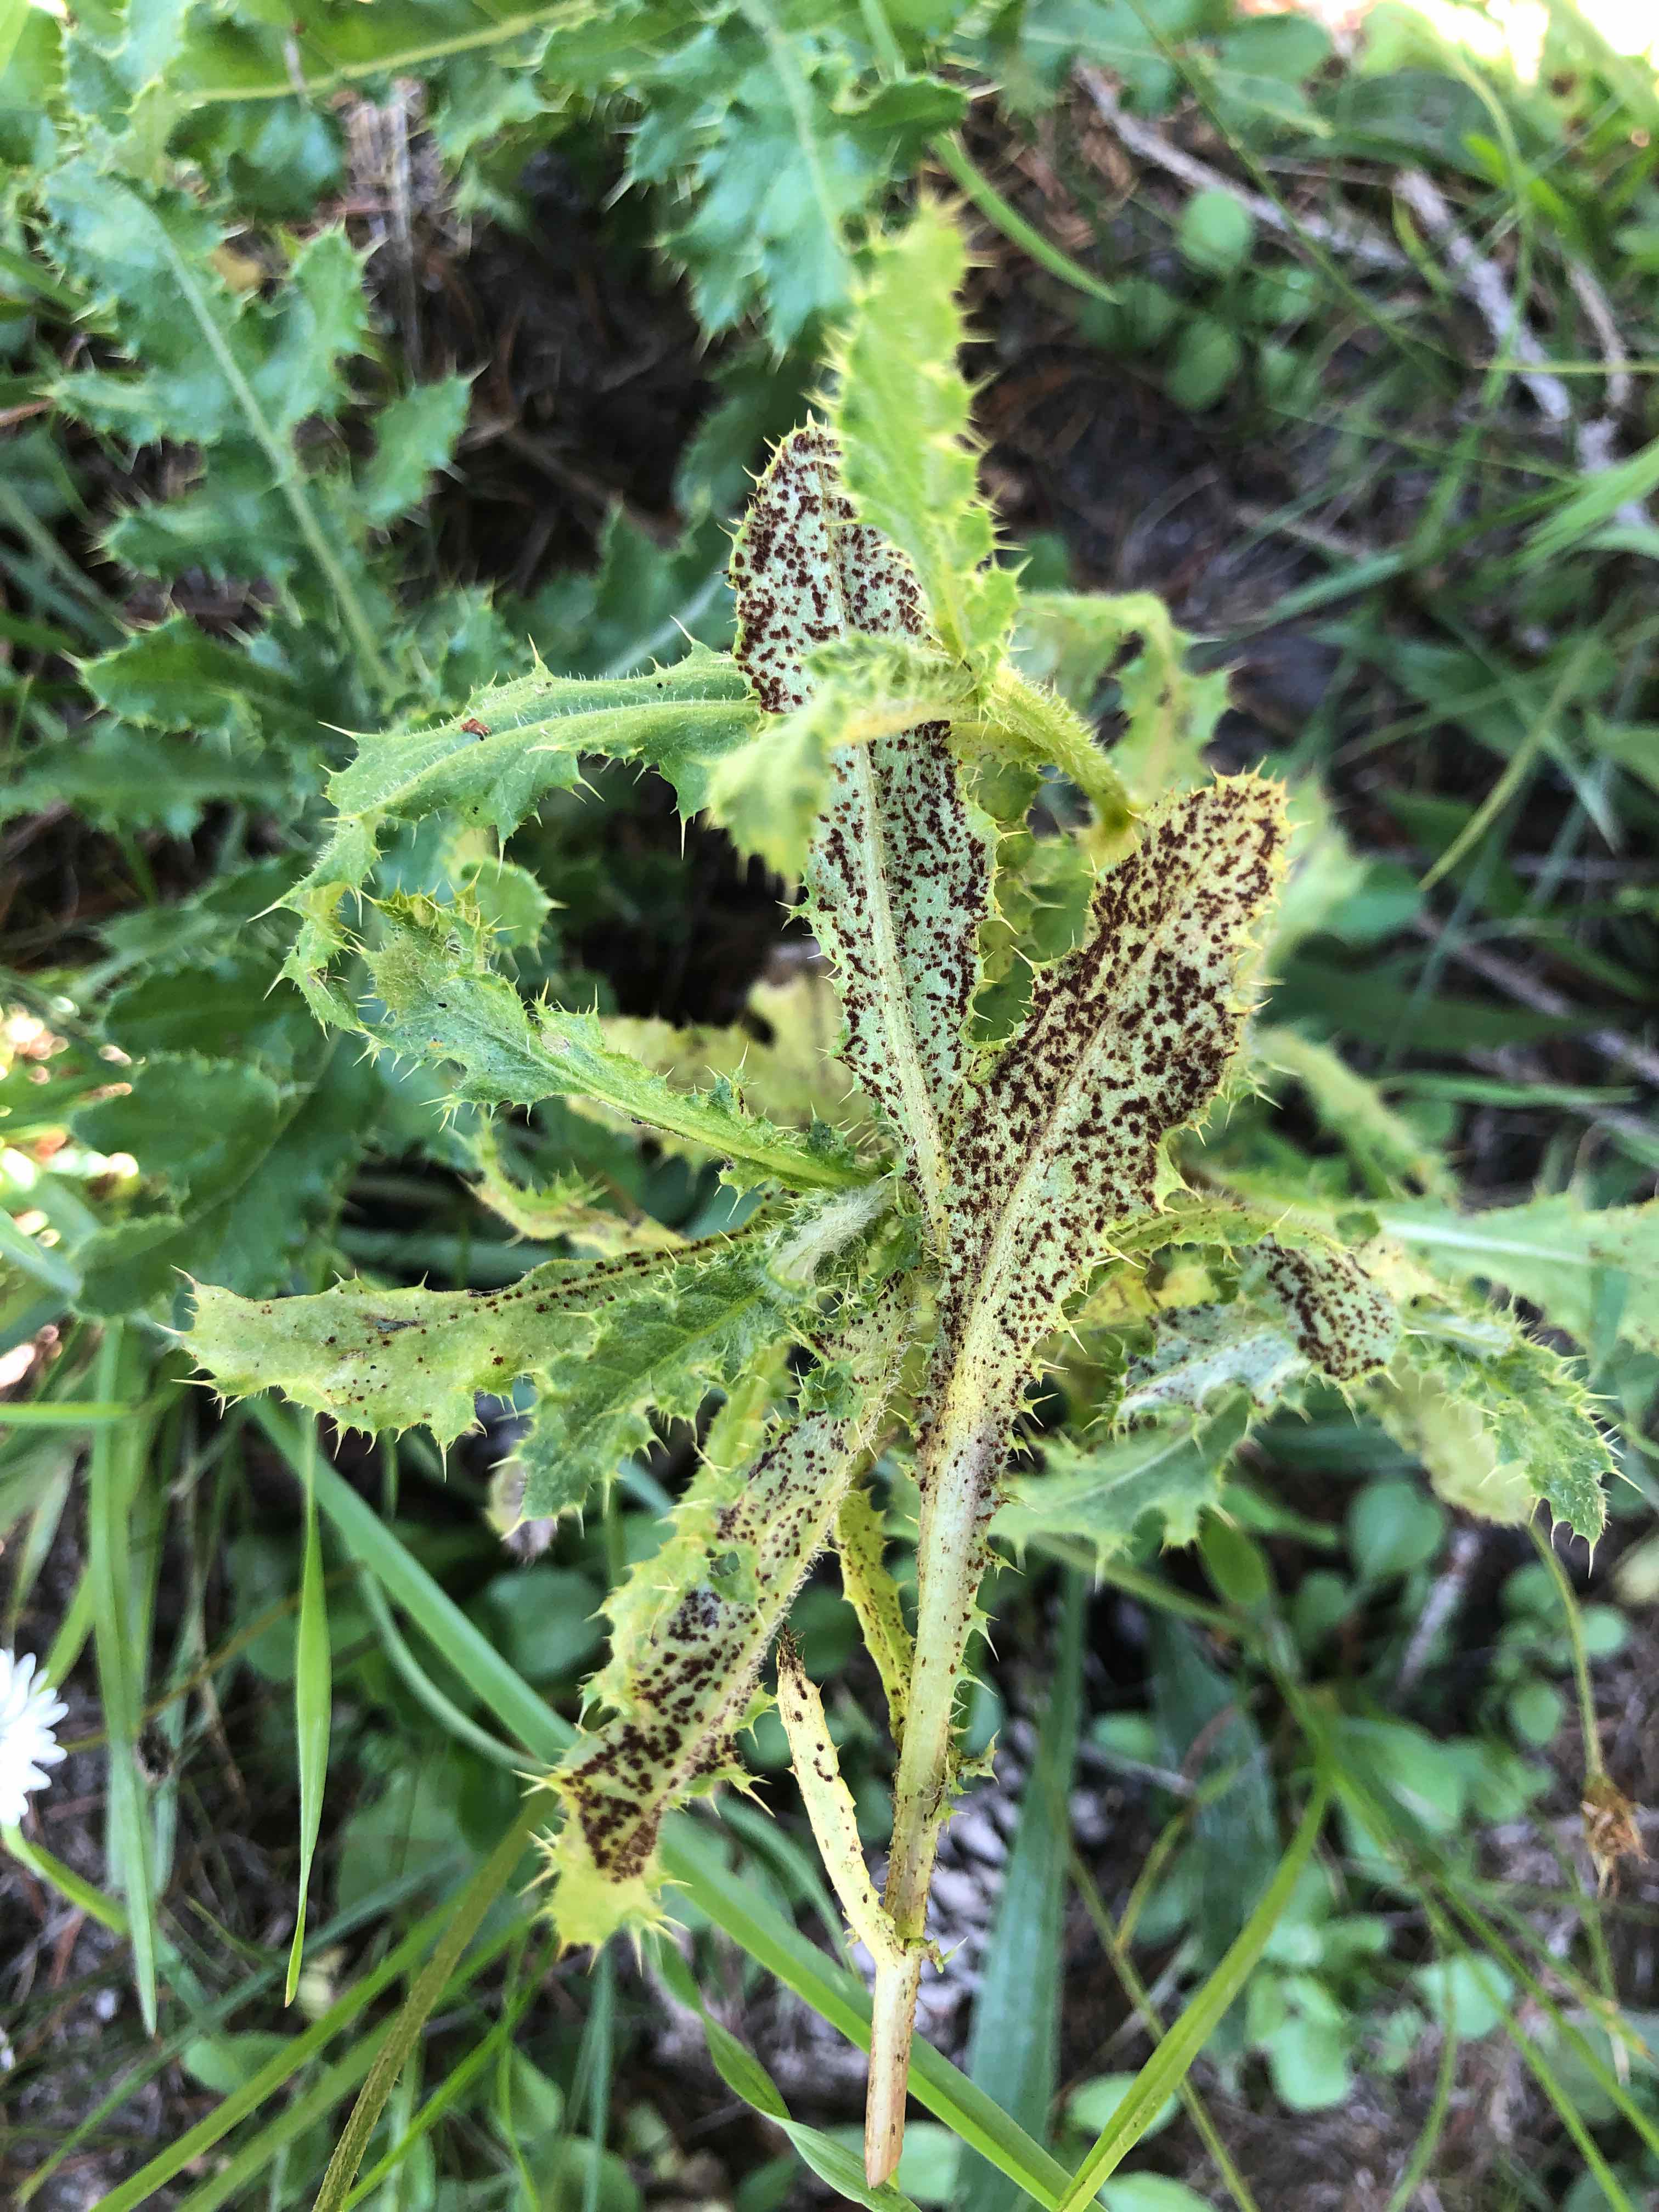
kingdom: Fungi
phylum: Basidiomycota
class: Pucciniomycetes
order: Pucciniales
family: Pucciniaceae
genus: Puccinia
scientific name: Puccinia suaveolens
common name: tidsel-tvecellerust
